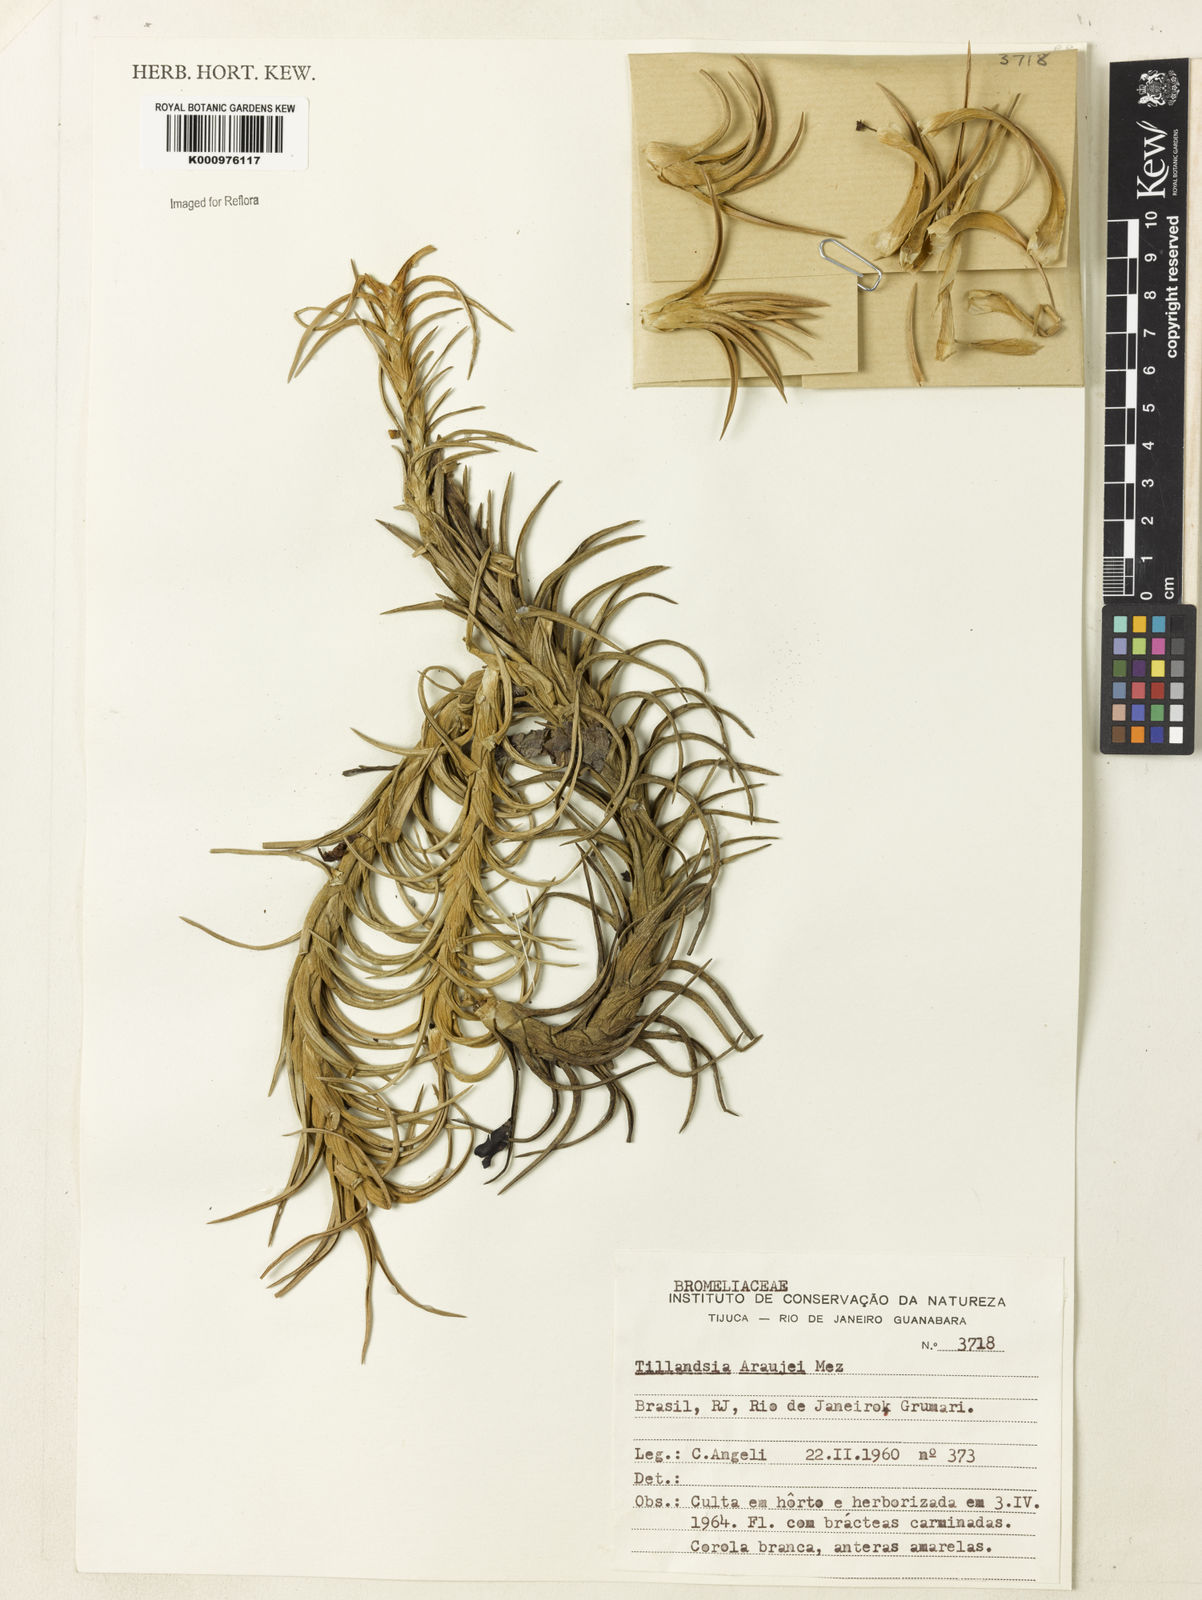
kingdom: Plantae
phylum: Tracheophyta
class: Liliopsida
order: Poales
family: Bromeliaceae
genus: Tillandsia
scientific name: Tillandsia araujei
